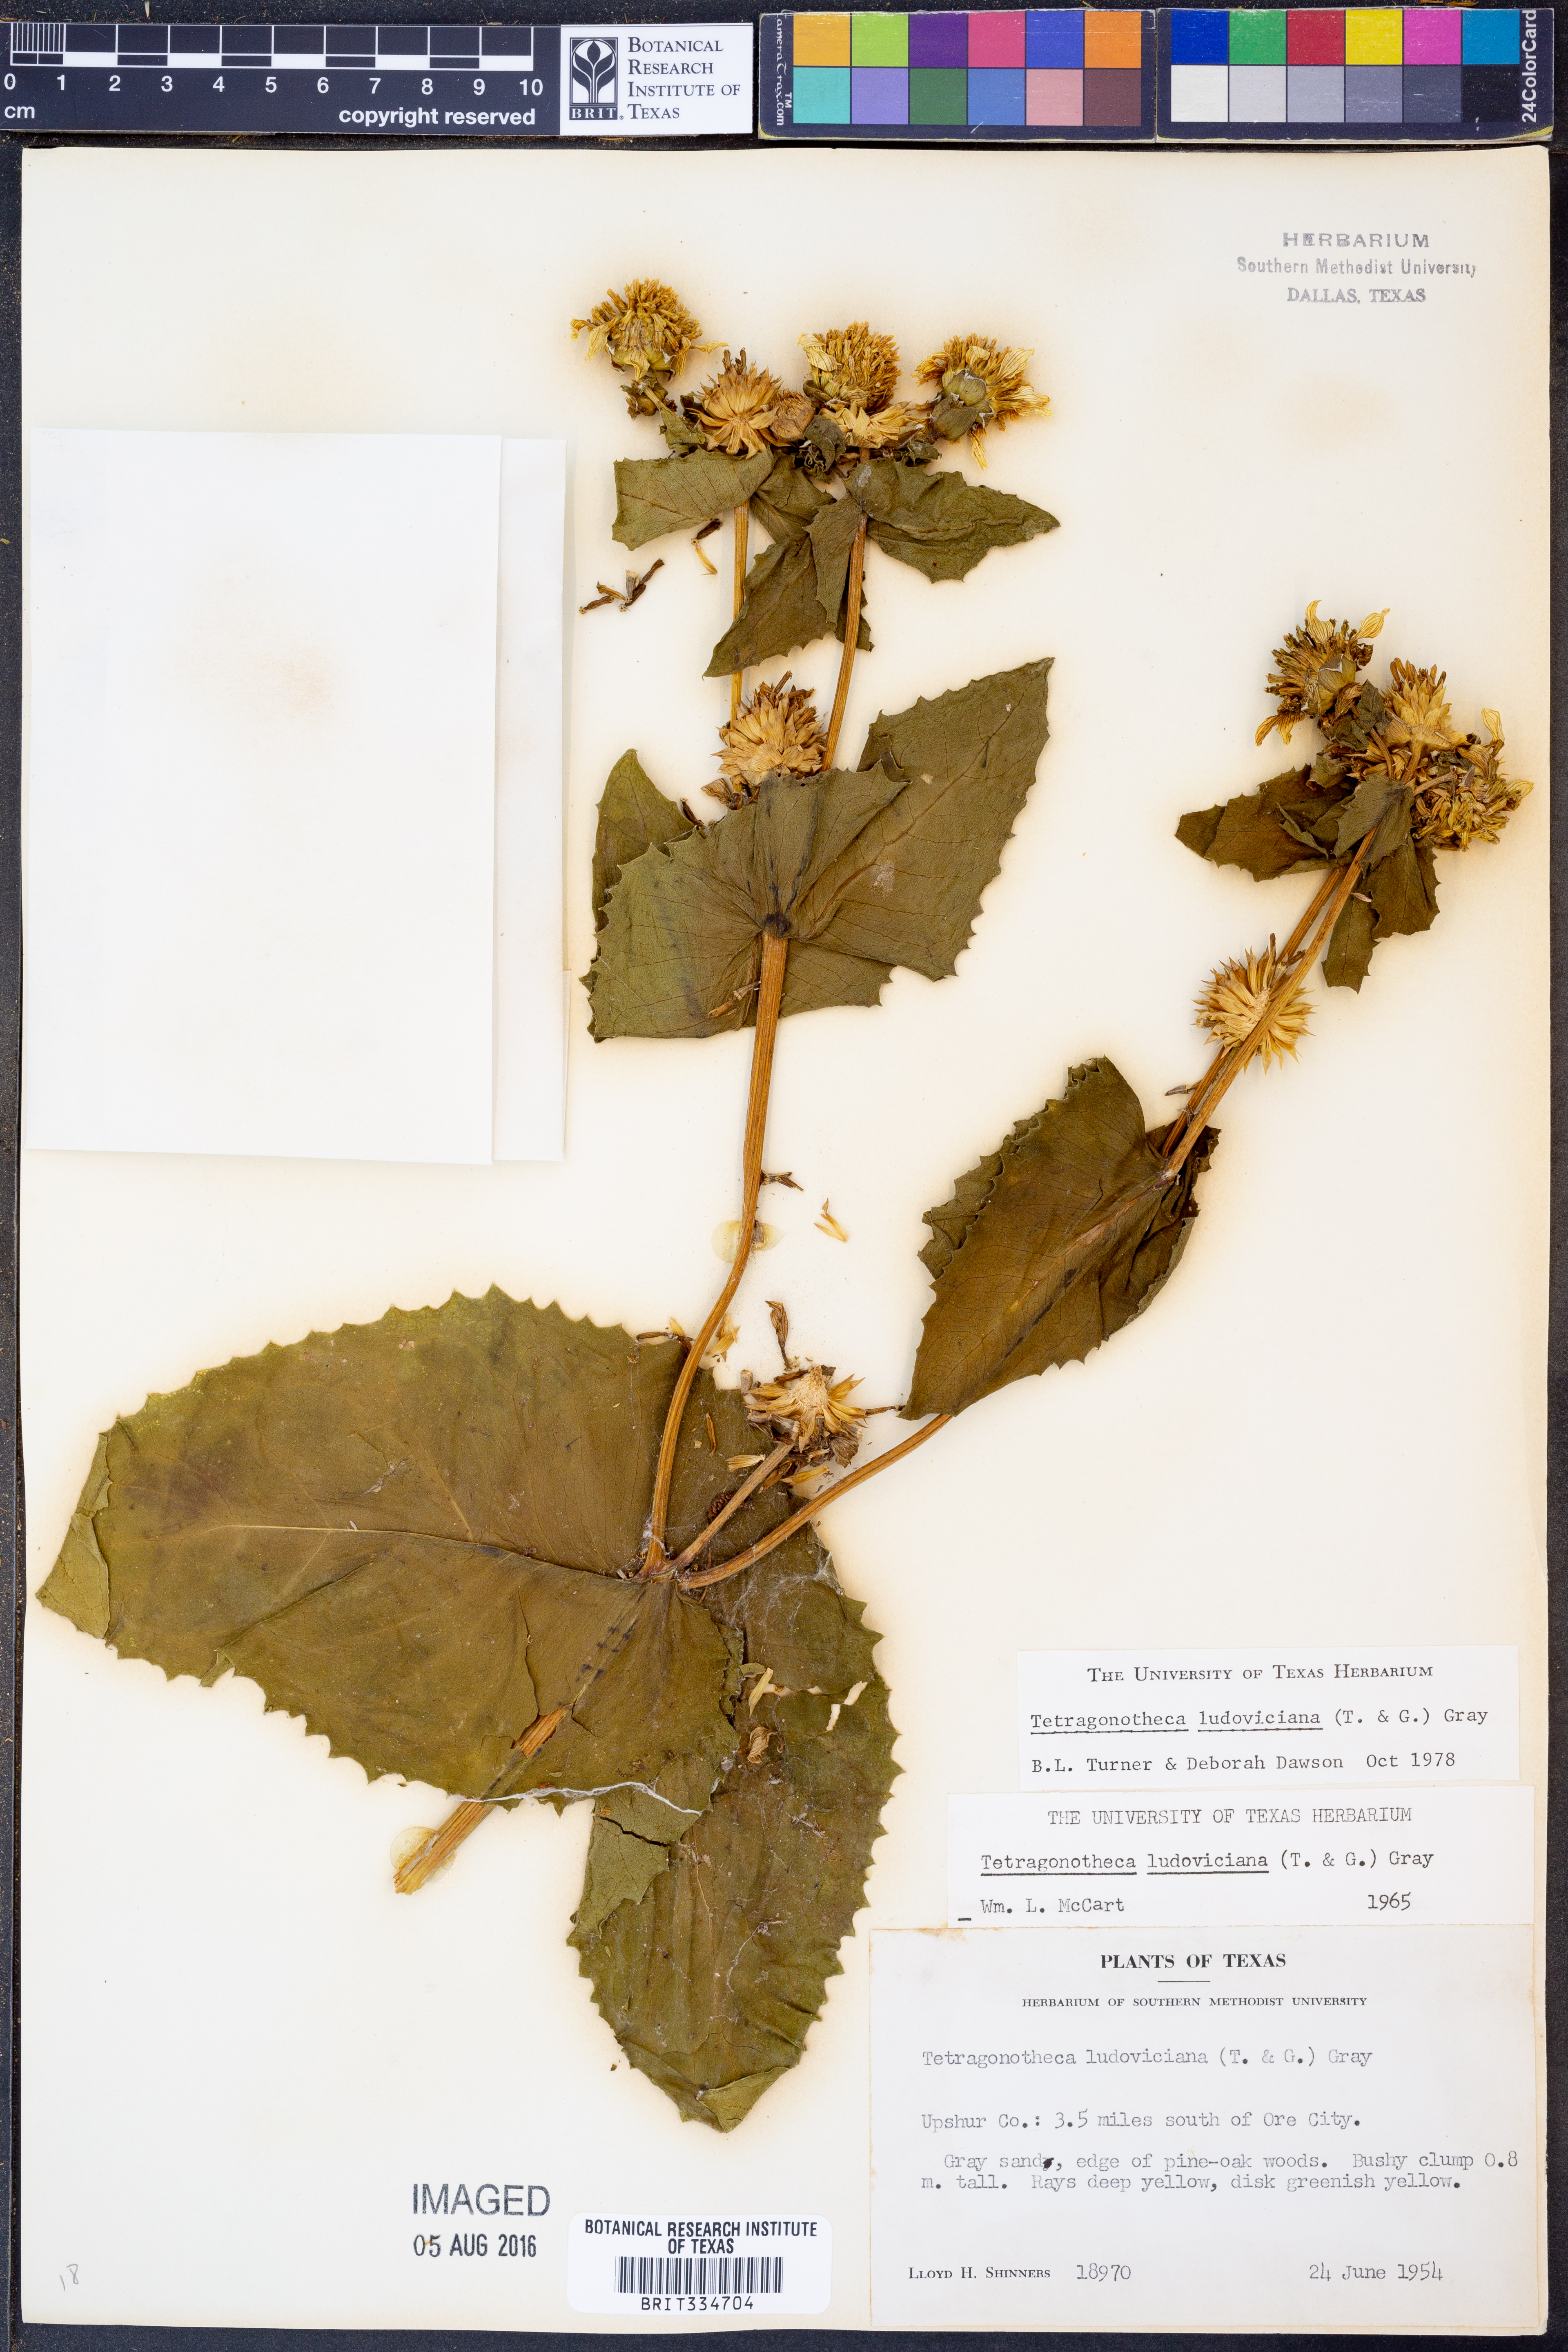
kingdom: Plantae
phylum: Tracheophyta
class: Magnoliopsida
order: Asterales
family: Asteraceae
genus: Tetragonotheca
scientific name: Tetragonotheca ludoviciana
